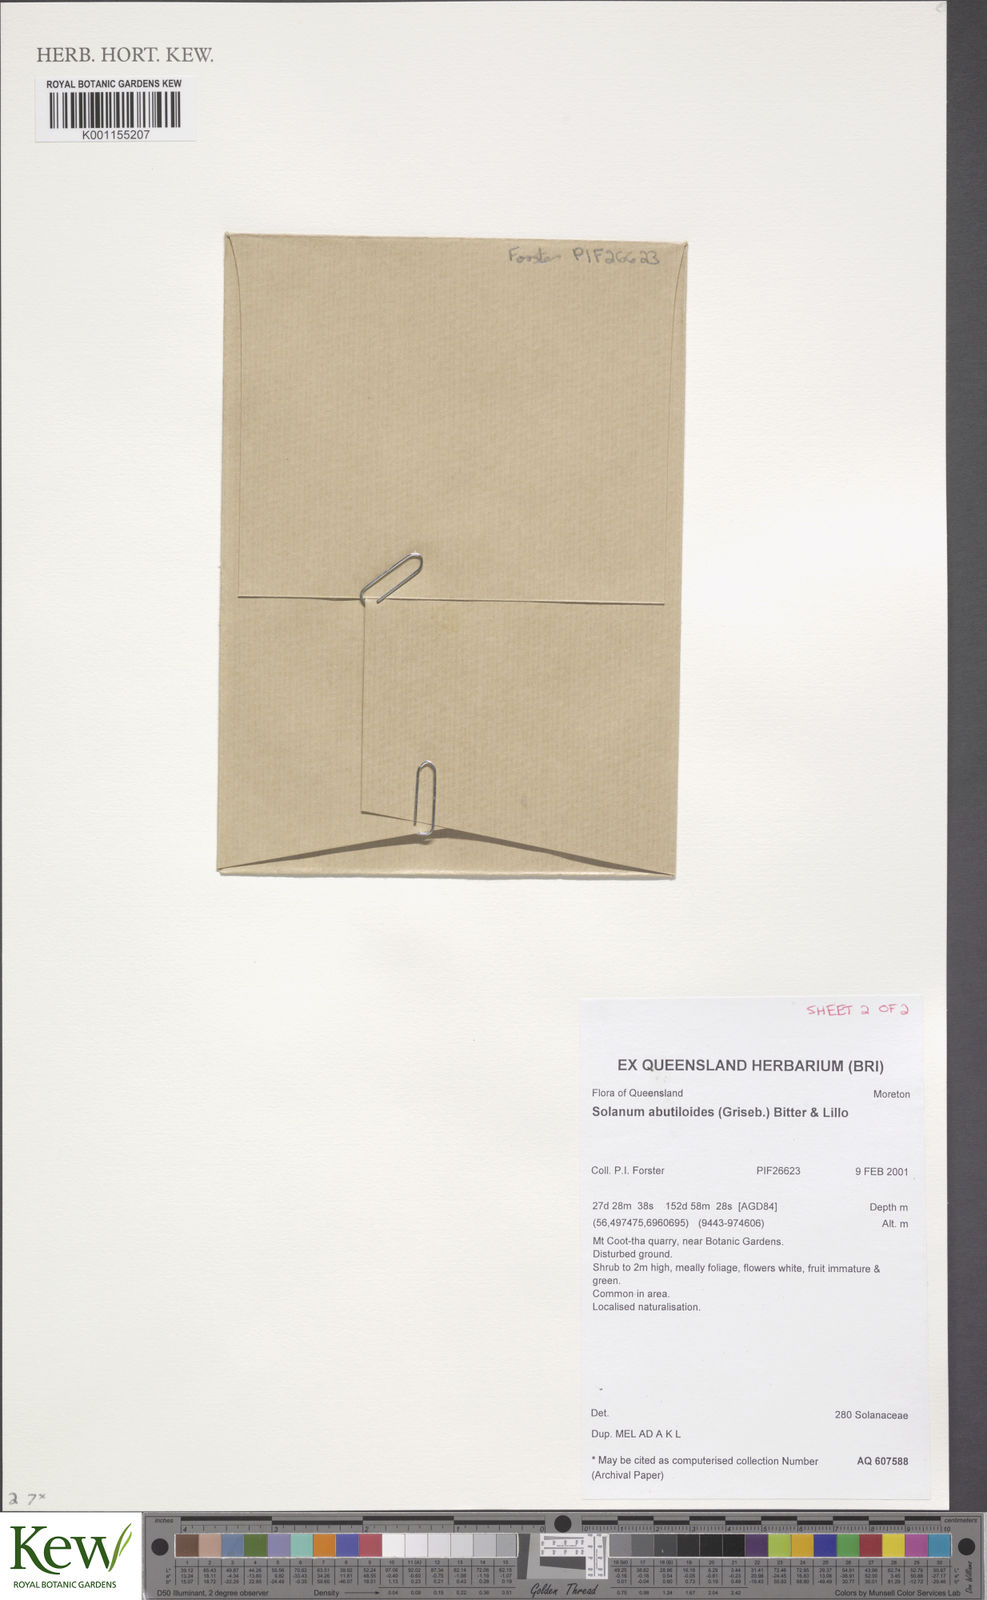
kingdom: Plantae
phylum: Tracheophyta
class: Magnoliopsida
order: Solanales
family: Solanaceae
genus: Solanum
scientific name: Solanum abutiloides
